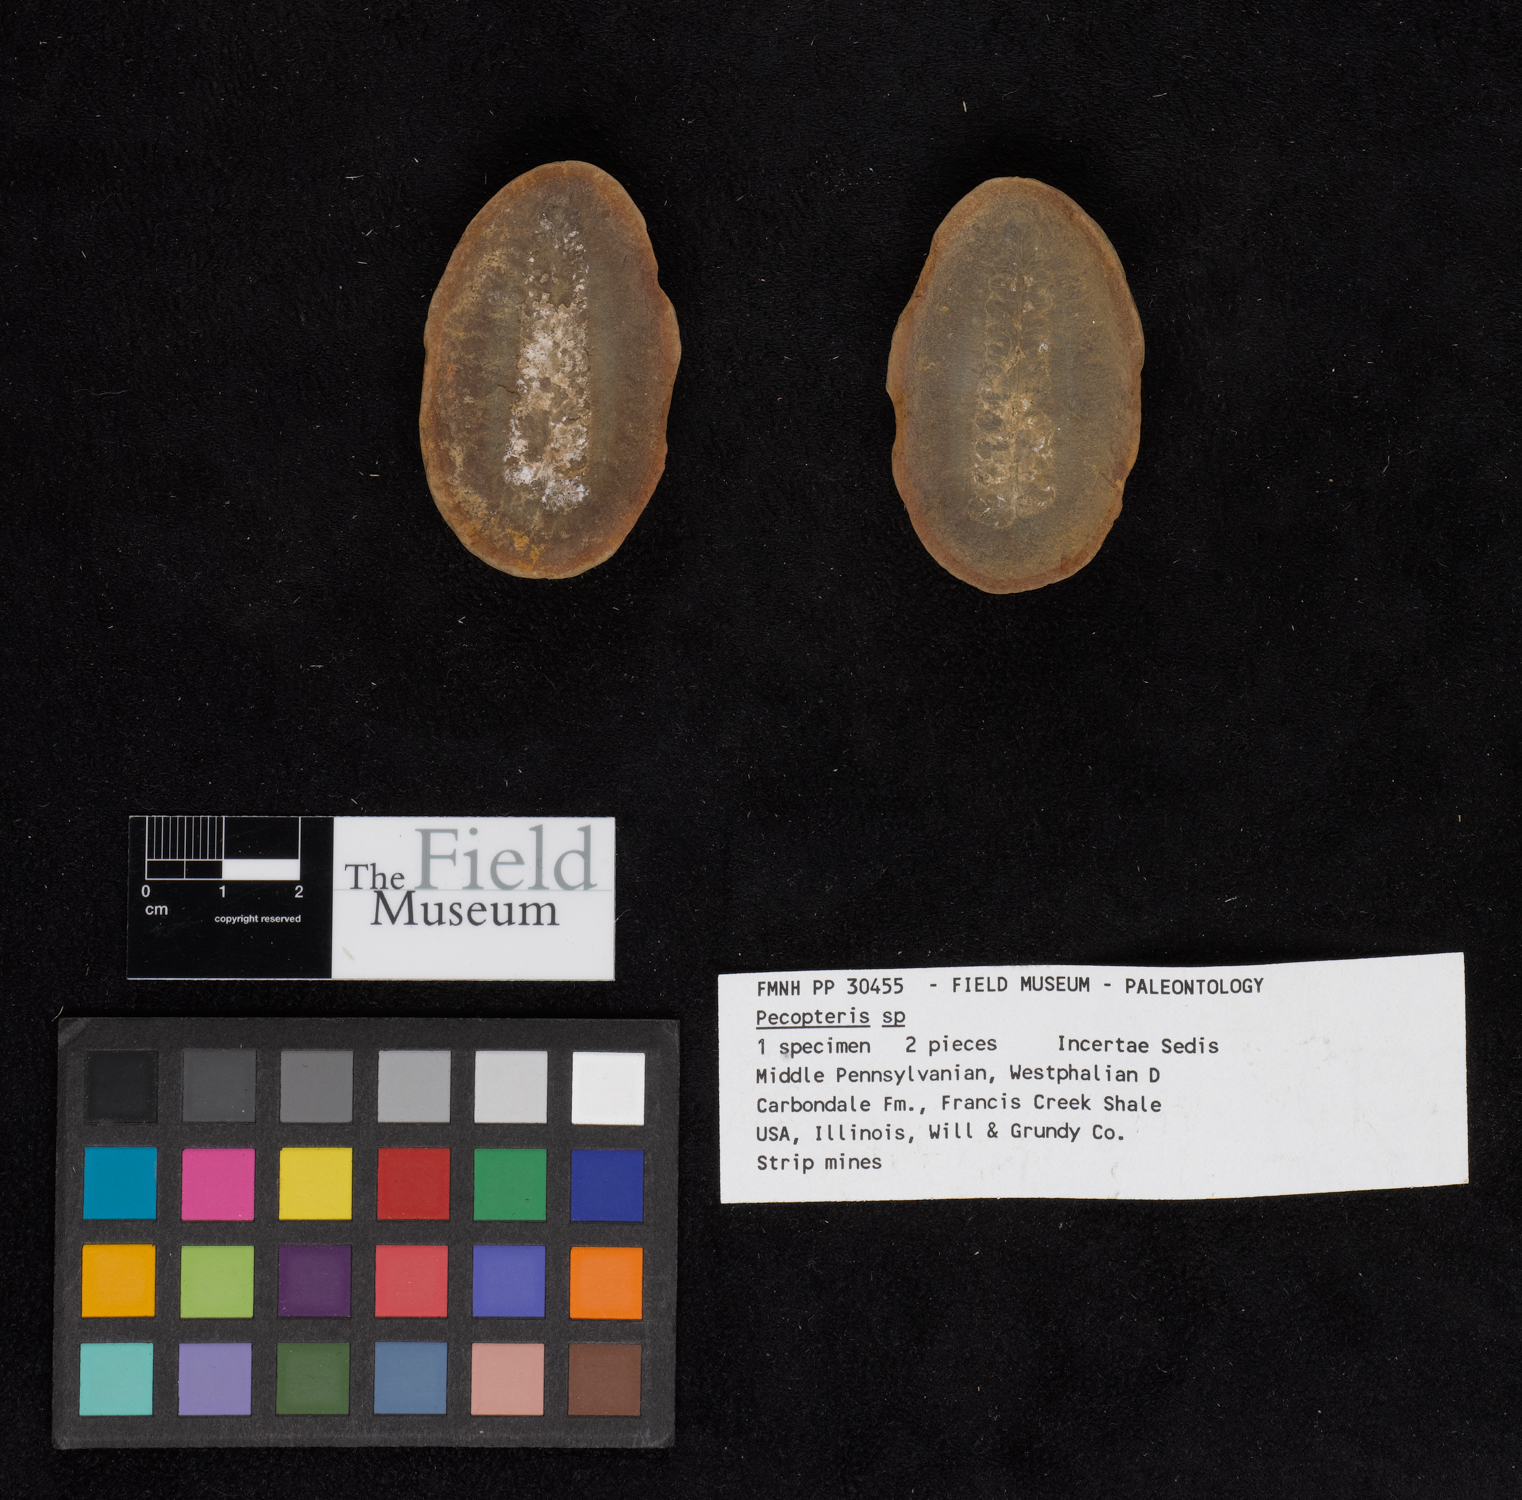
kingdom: Plantae
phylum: Tracheophyta
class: Polypodiopsida
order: Marattiales
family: Asterothecaceae
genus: Pecopteris
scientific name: Pecopteris
